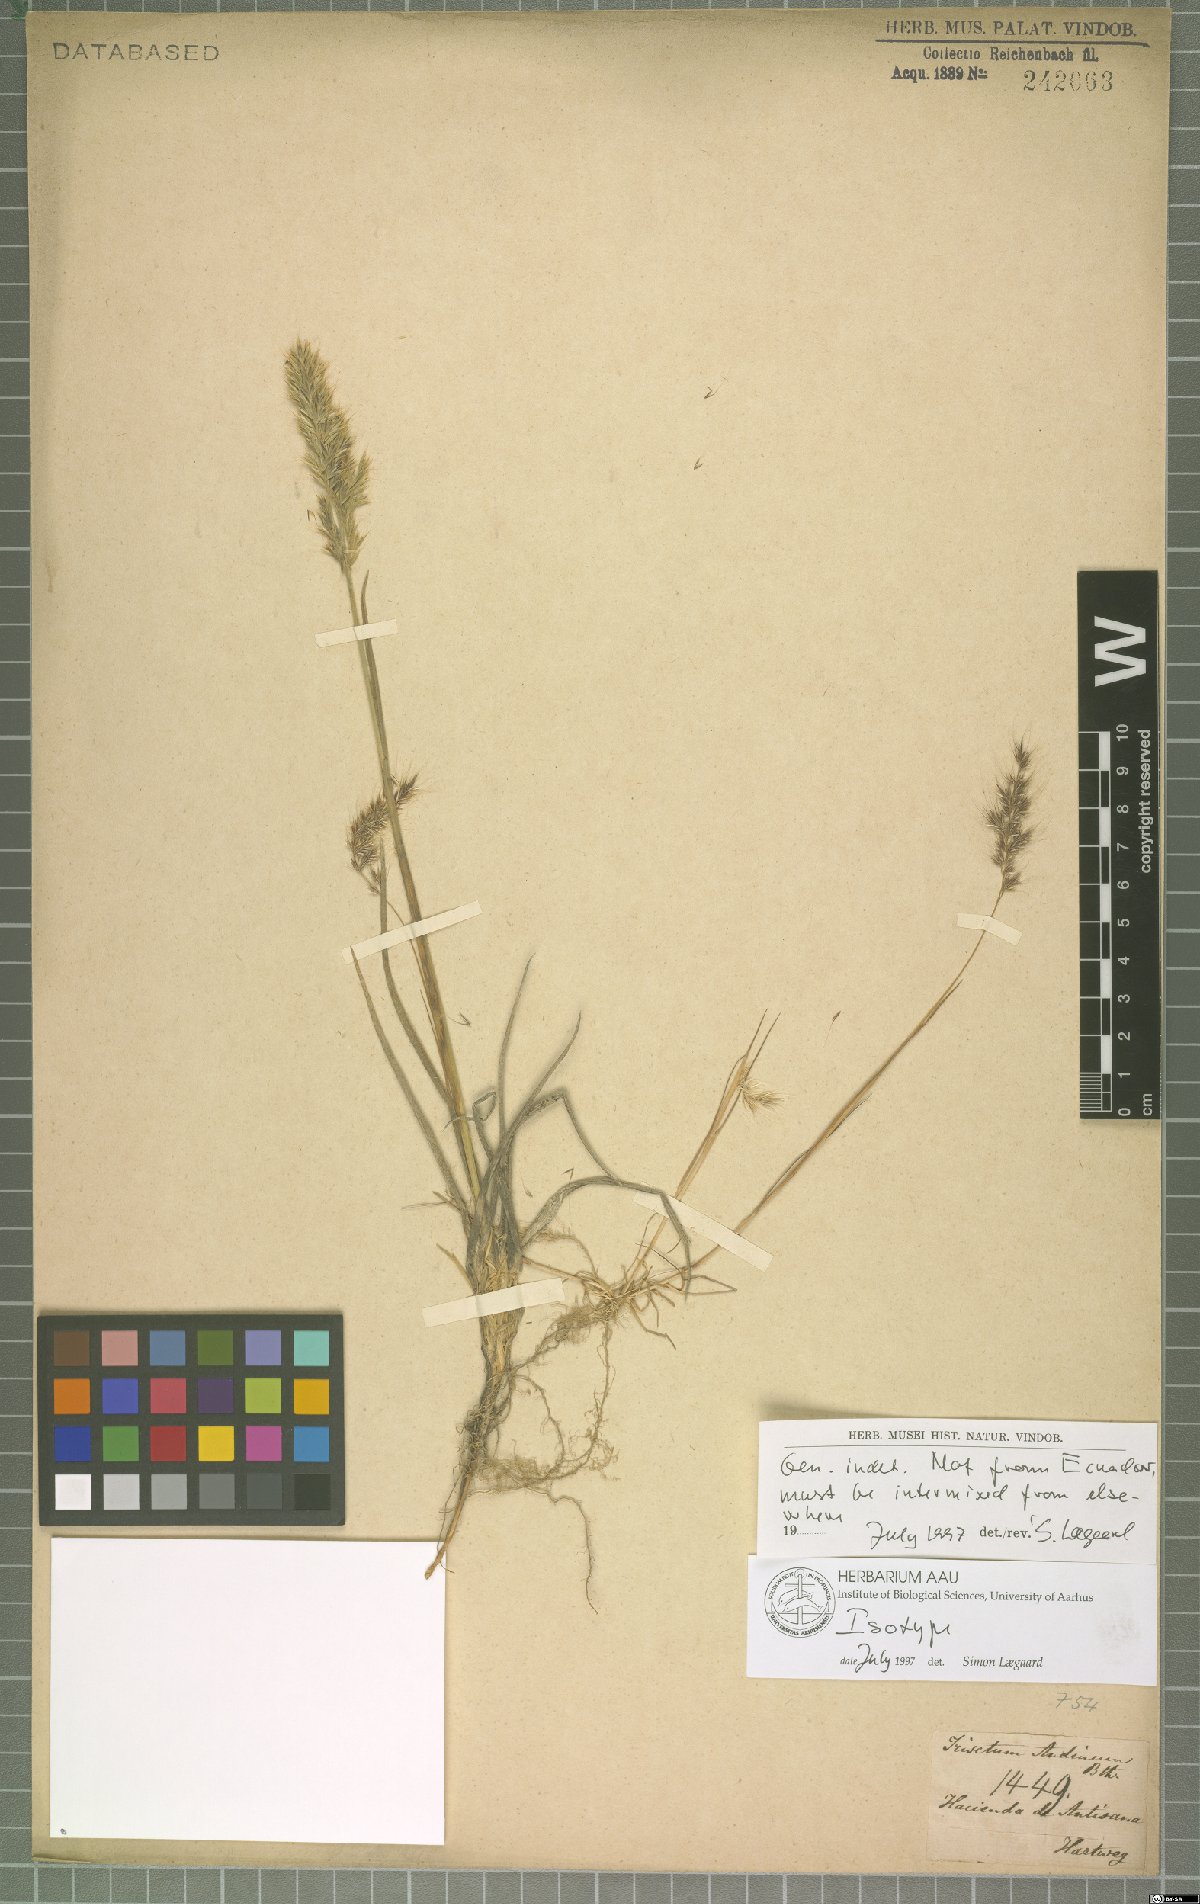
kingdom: Plantae
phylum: Tracheophyta
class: Liliopsida
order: Poales
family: Poaceae
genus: Koeleria
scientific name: Koeleria spicata
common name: Mountain trisetum
